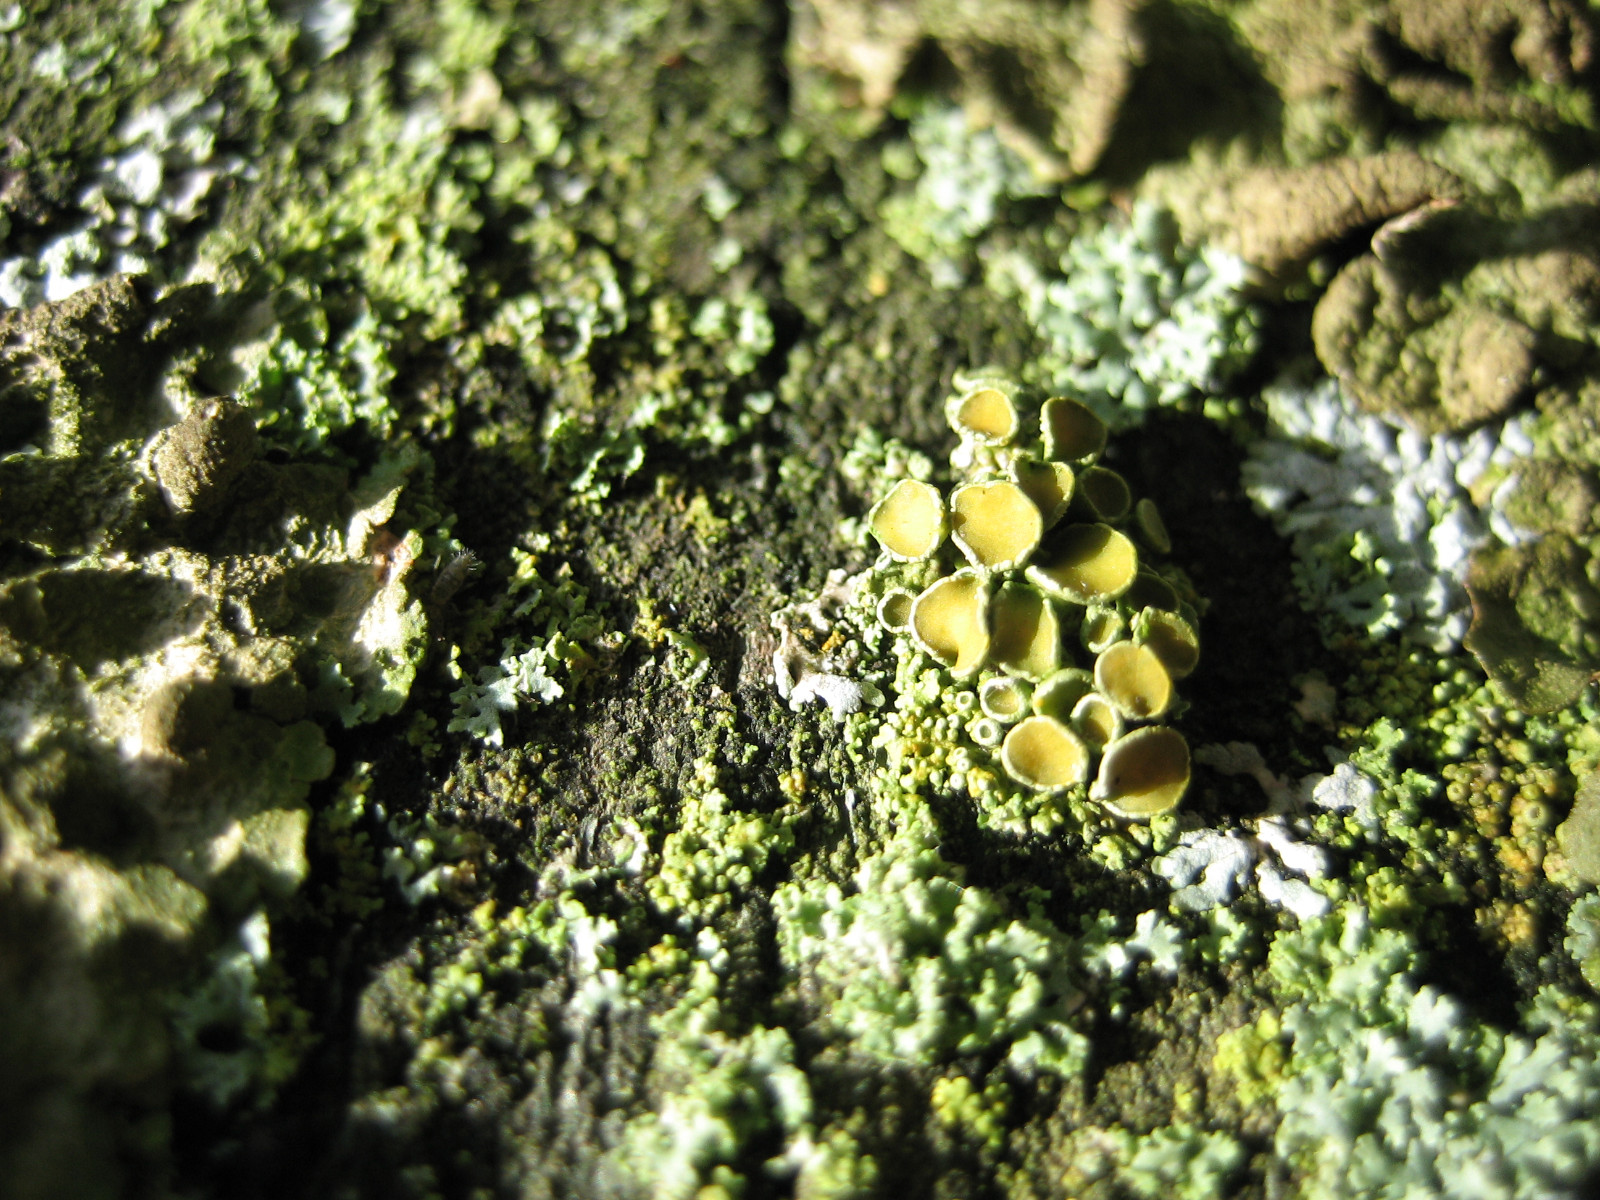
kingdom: Fungi
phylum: Ascomycota
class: Lecanoromycetes
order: Teloschistales
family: Teloschistaceae
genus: Polycauliona
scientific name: Polycauliona polycarpa
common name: mangefrugtet orangelav
